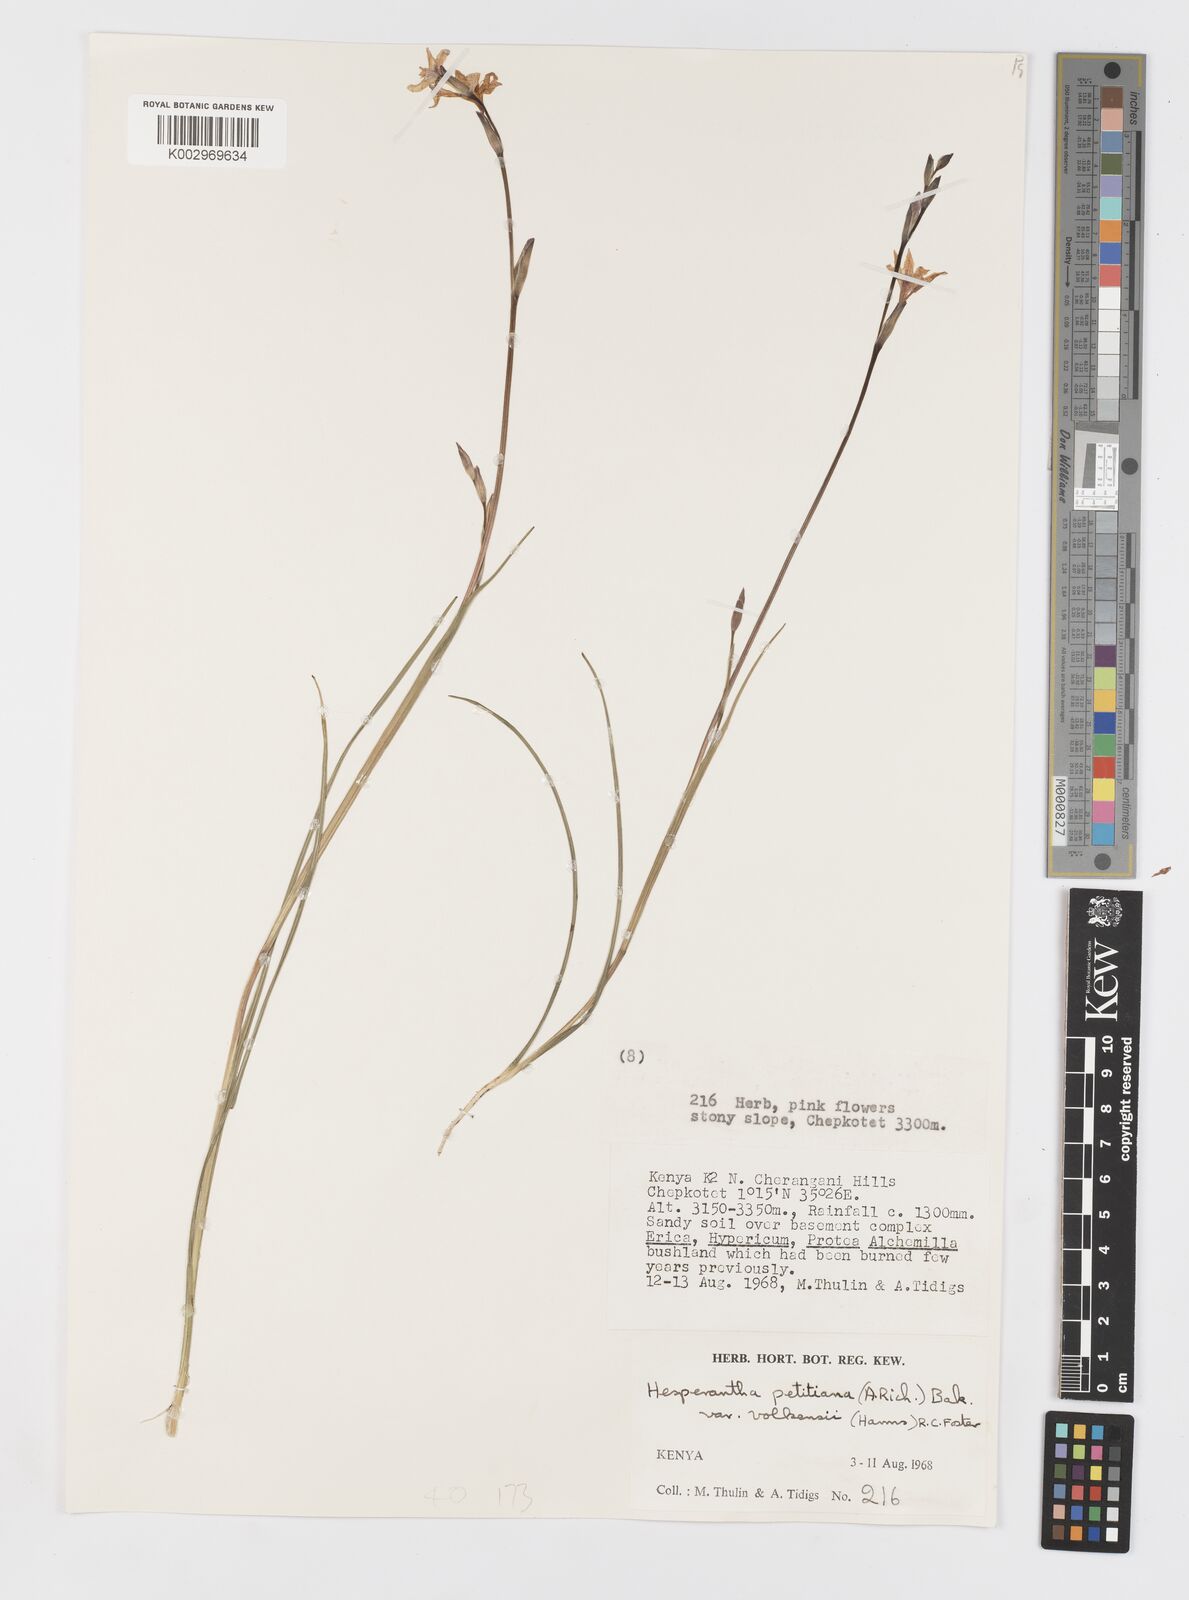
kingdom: Plantae
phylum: Tracheophyta
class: Liliopsida
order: Asparagales
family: Iridaceae
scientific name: Iridaceae
